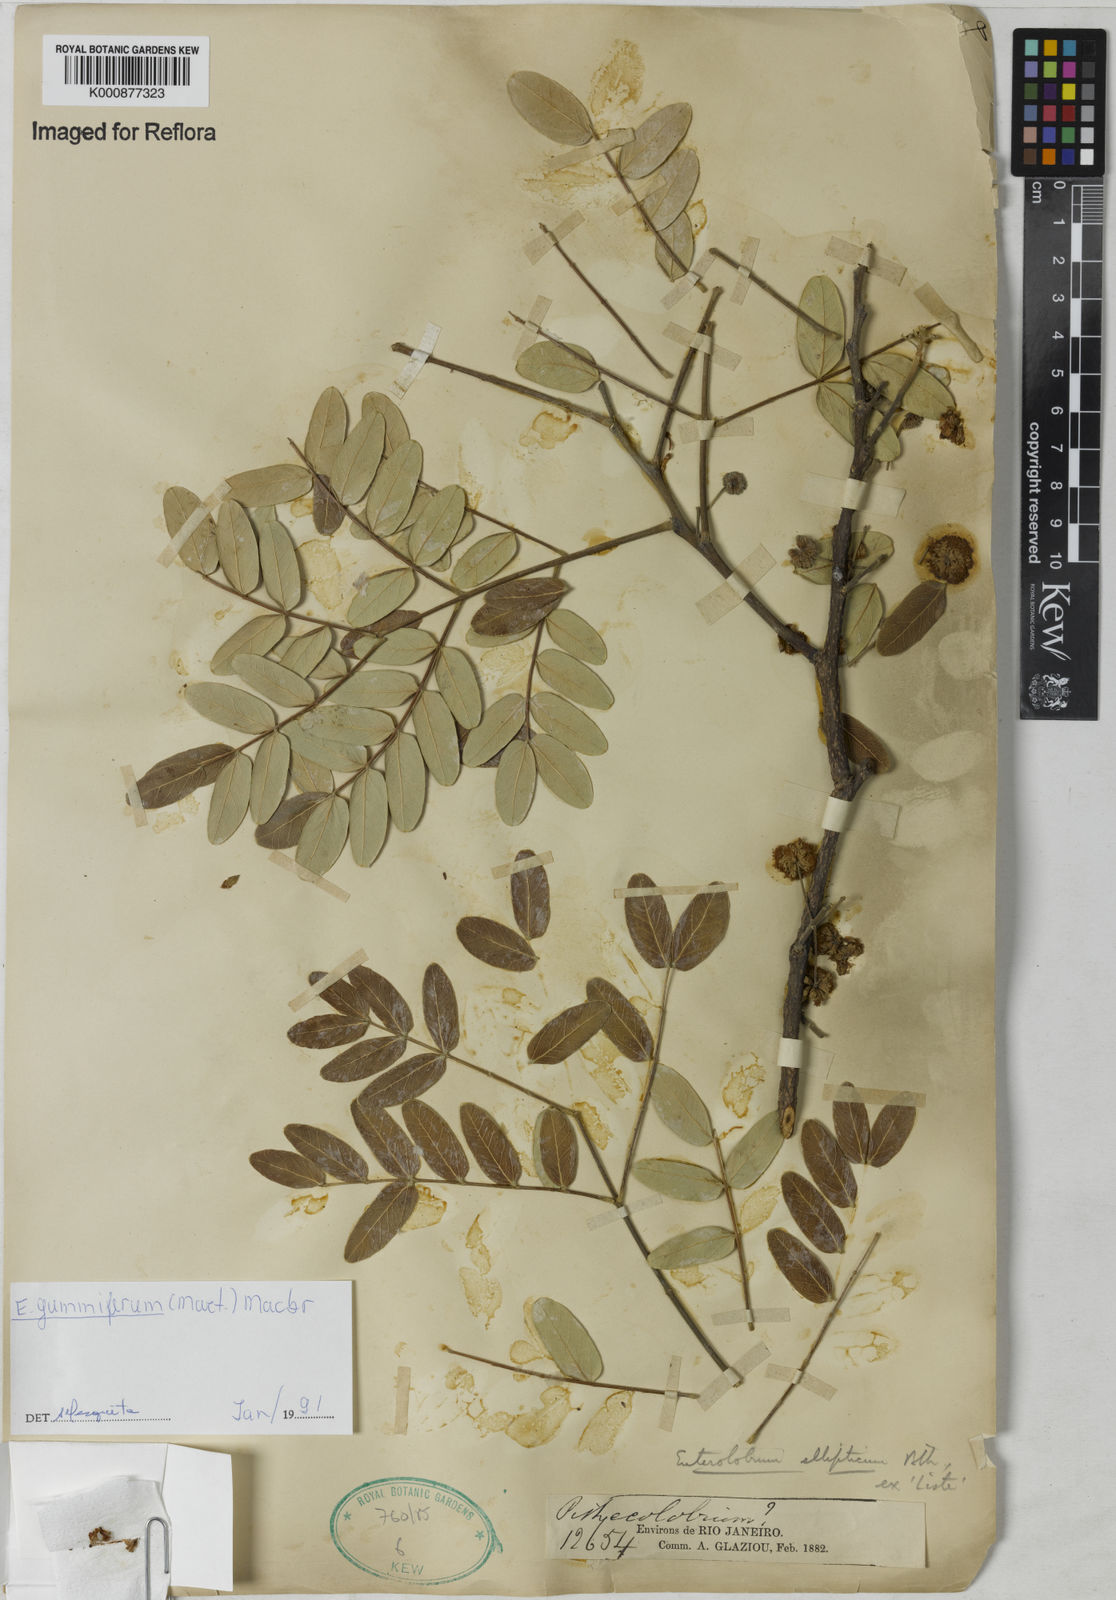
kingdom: Plantae
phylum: Tracheophyta
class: Magnoliopsida
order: Fabales
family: Fabaceae
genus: Enterolobium
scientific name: Enterolobium gummiferum
